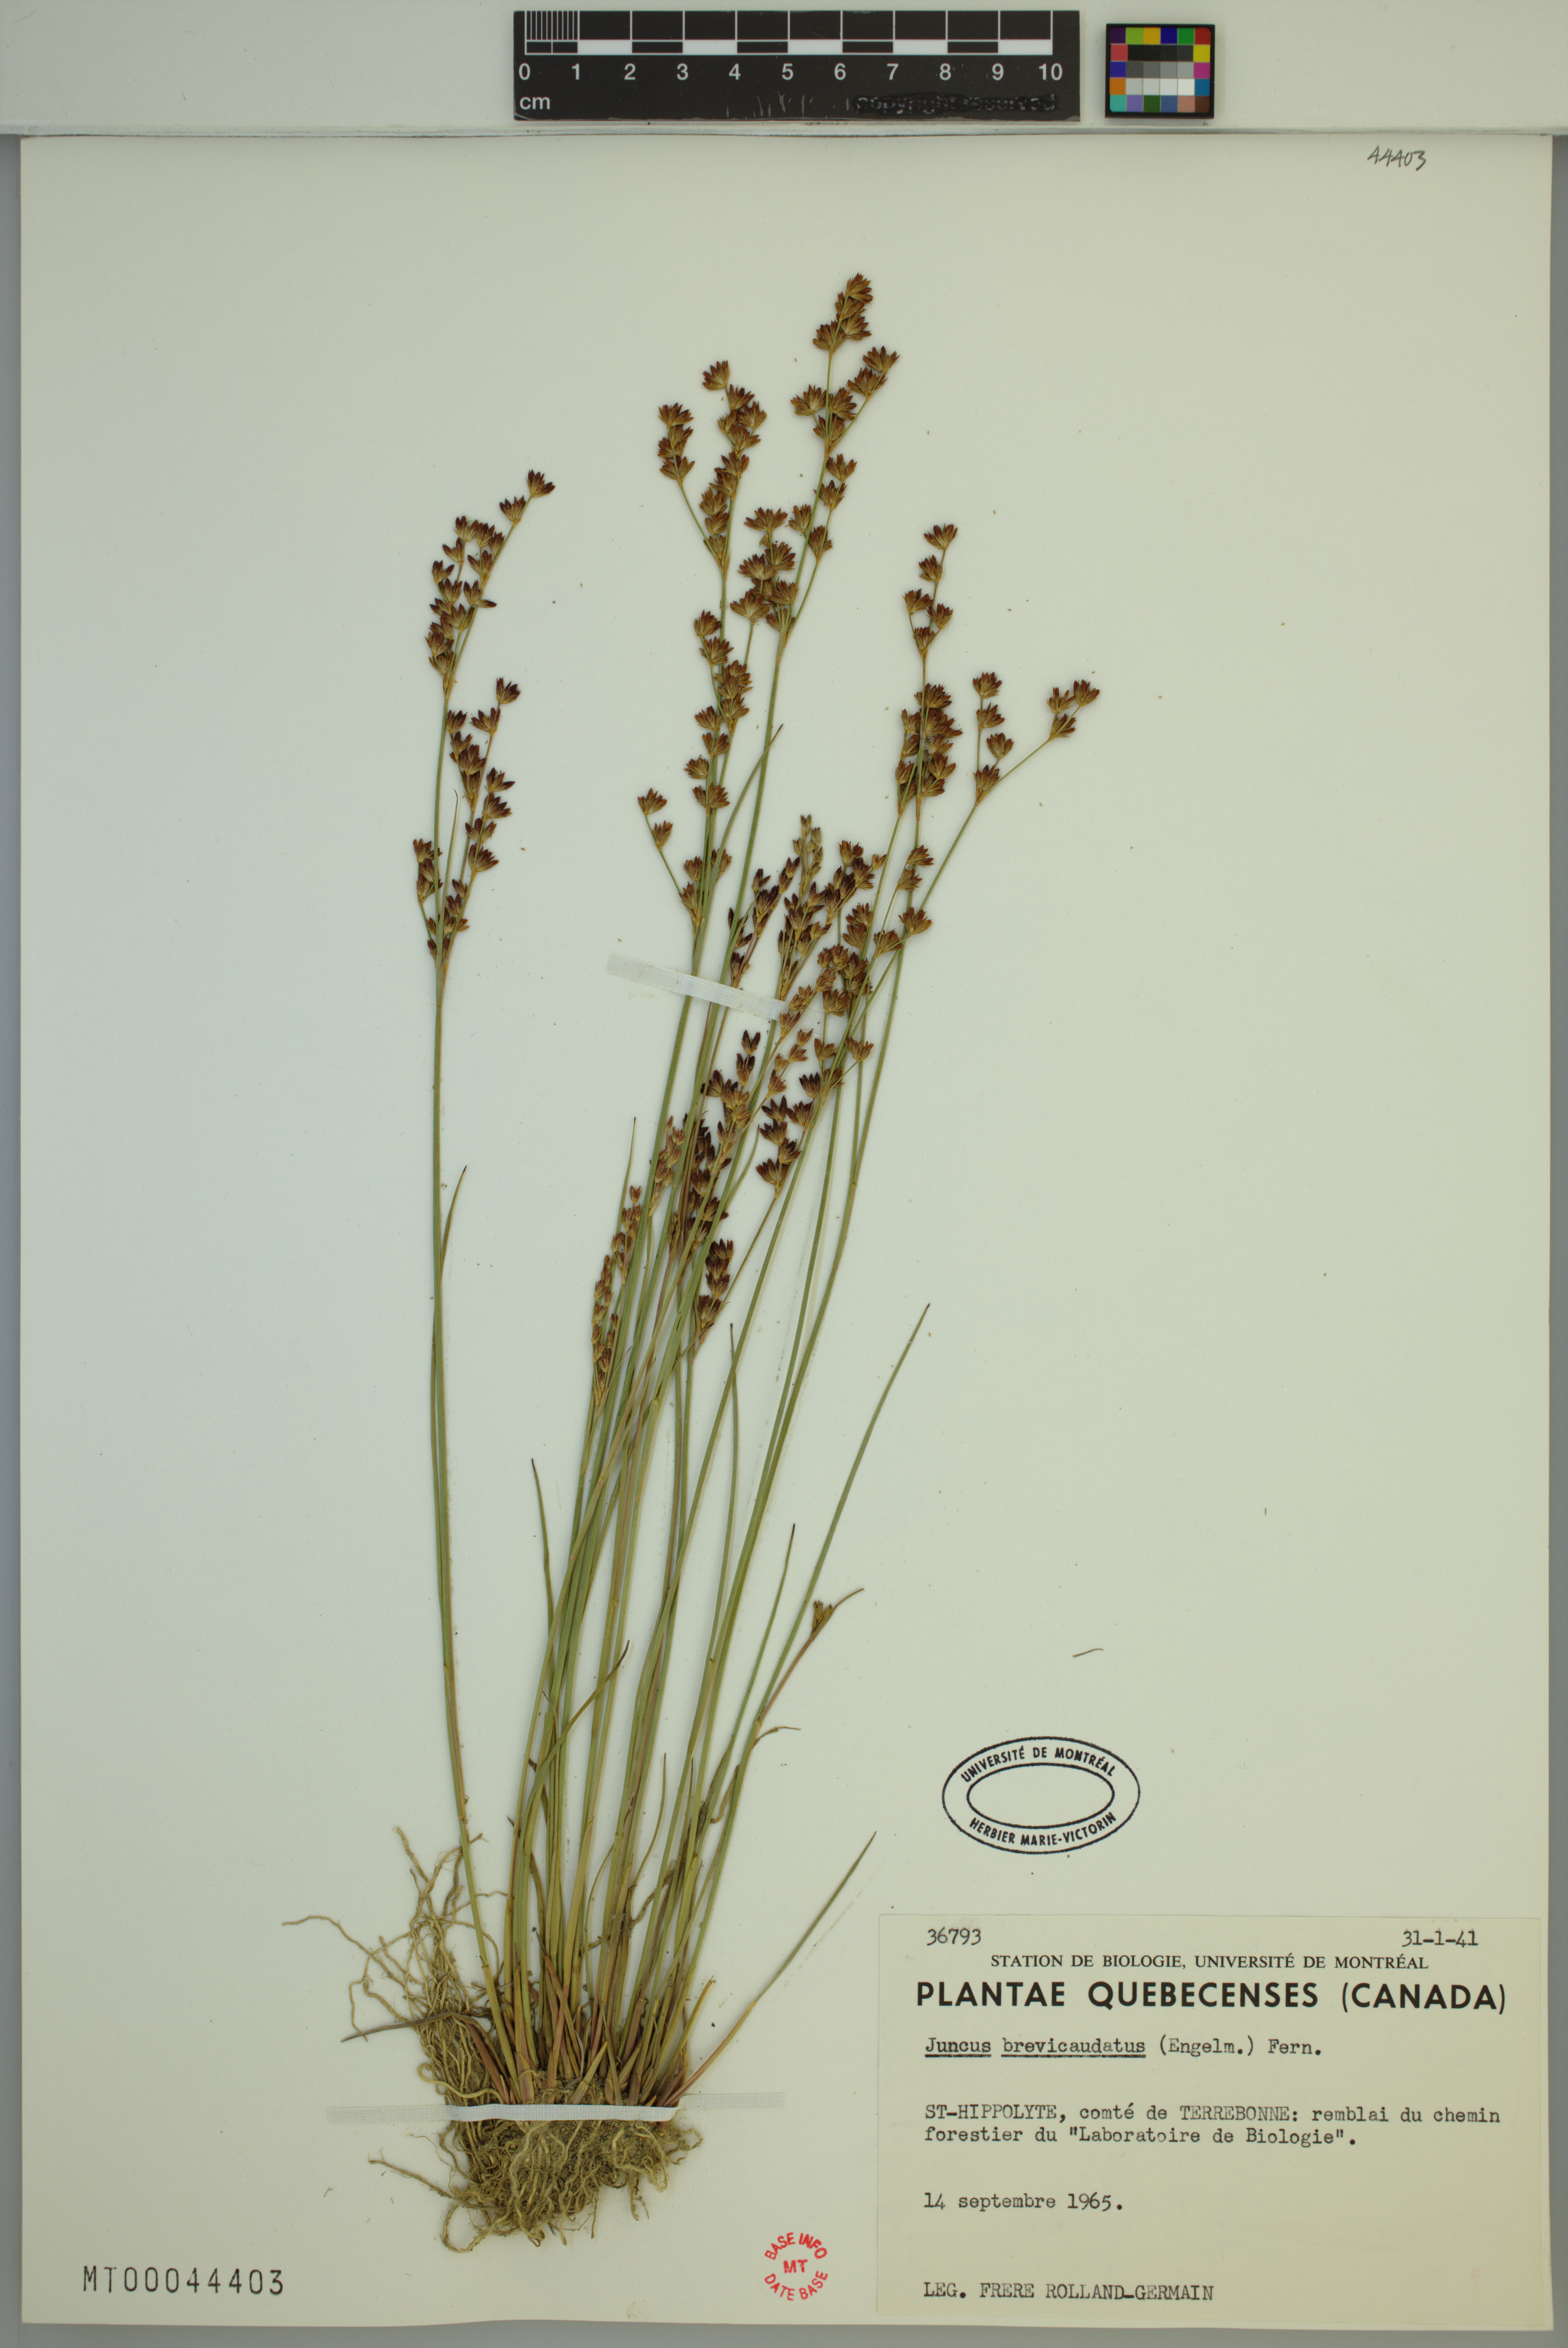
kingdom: Plantae
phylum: Tracheophyta
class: Liliopsida
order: Poales
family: Juncaceae
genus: Juncus
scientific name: Juncus brevicaudatus
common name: Narrow-panicle rush
